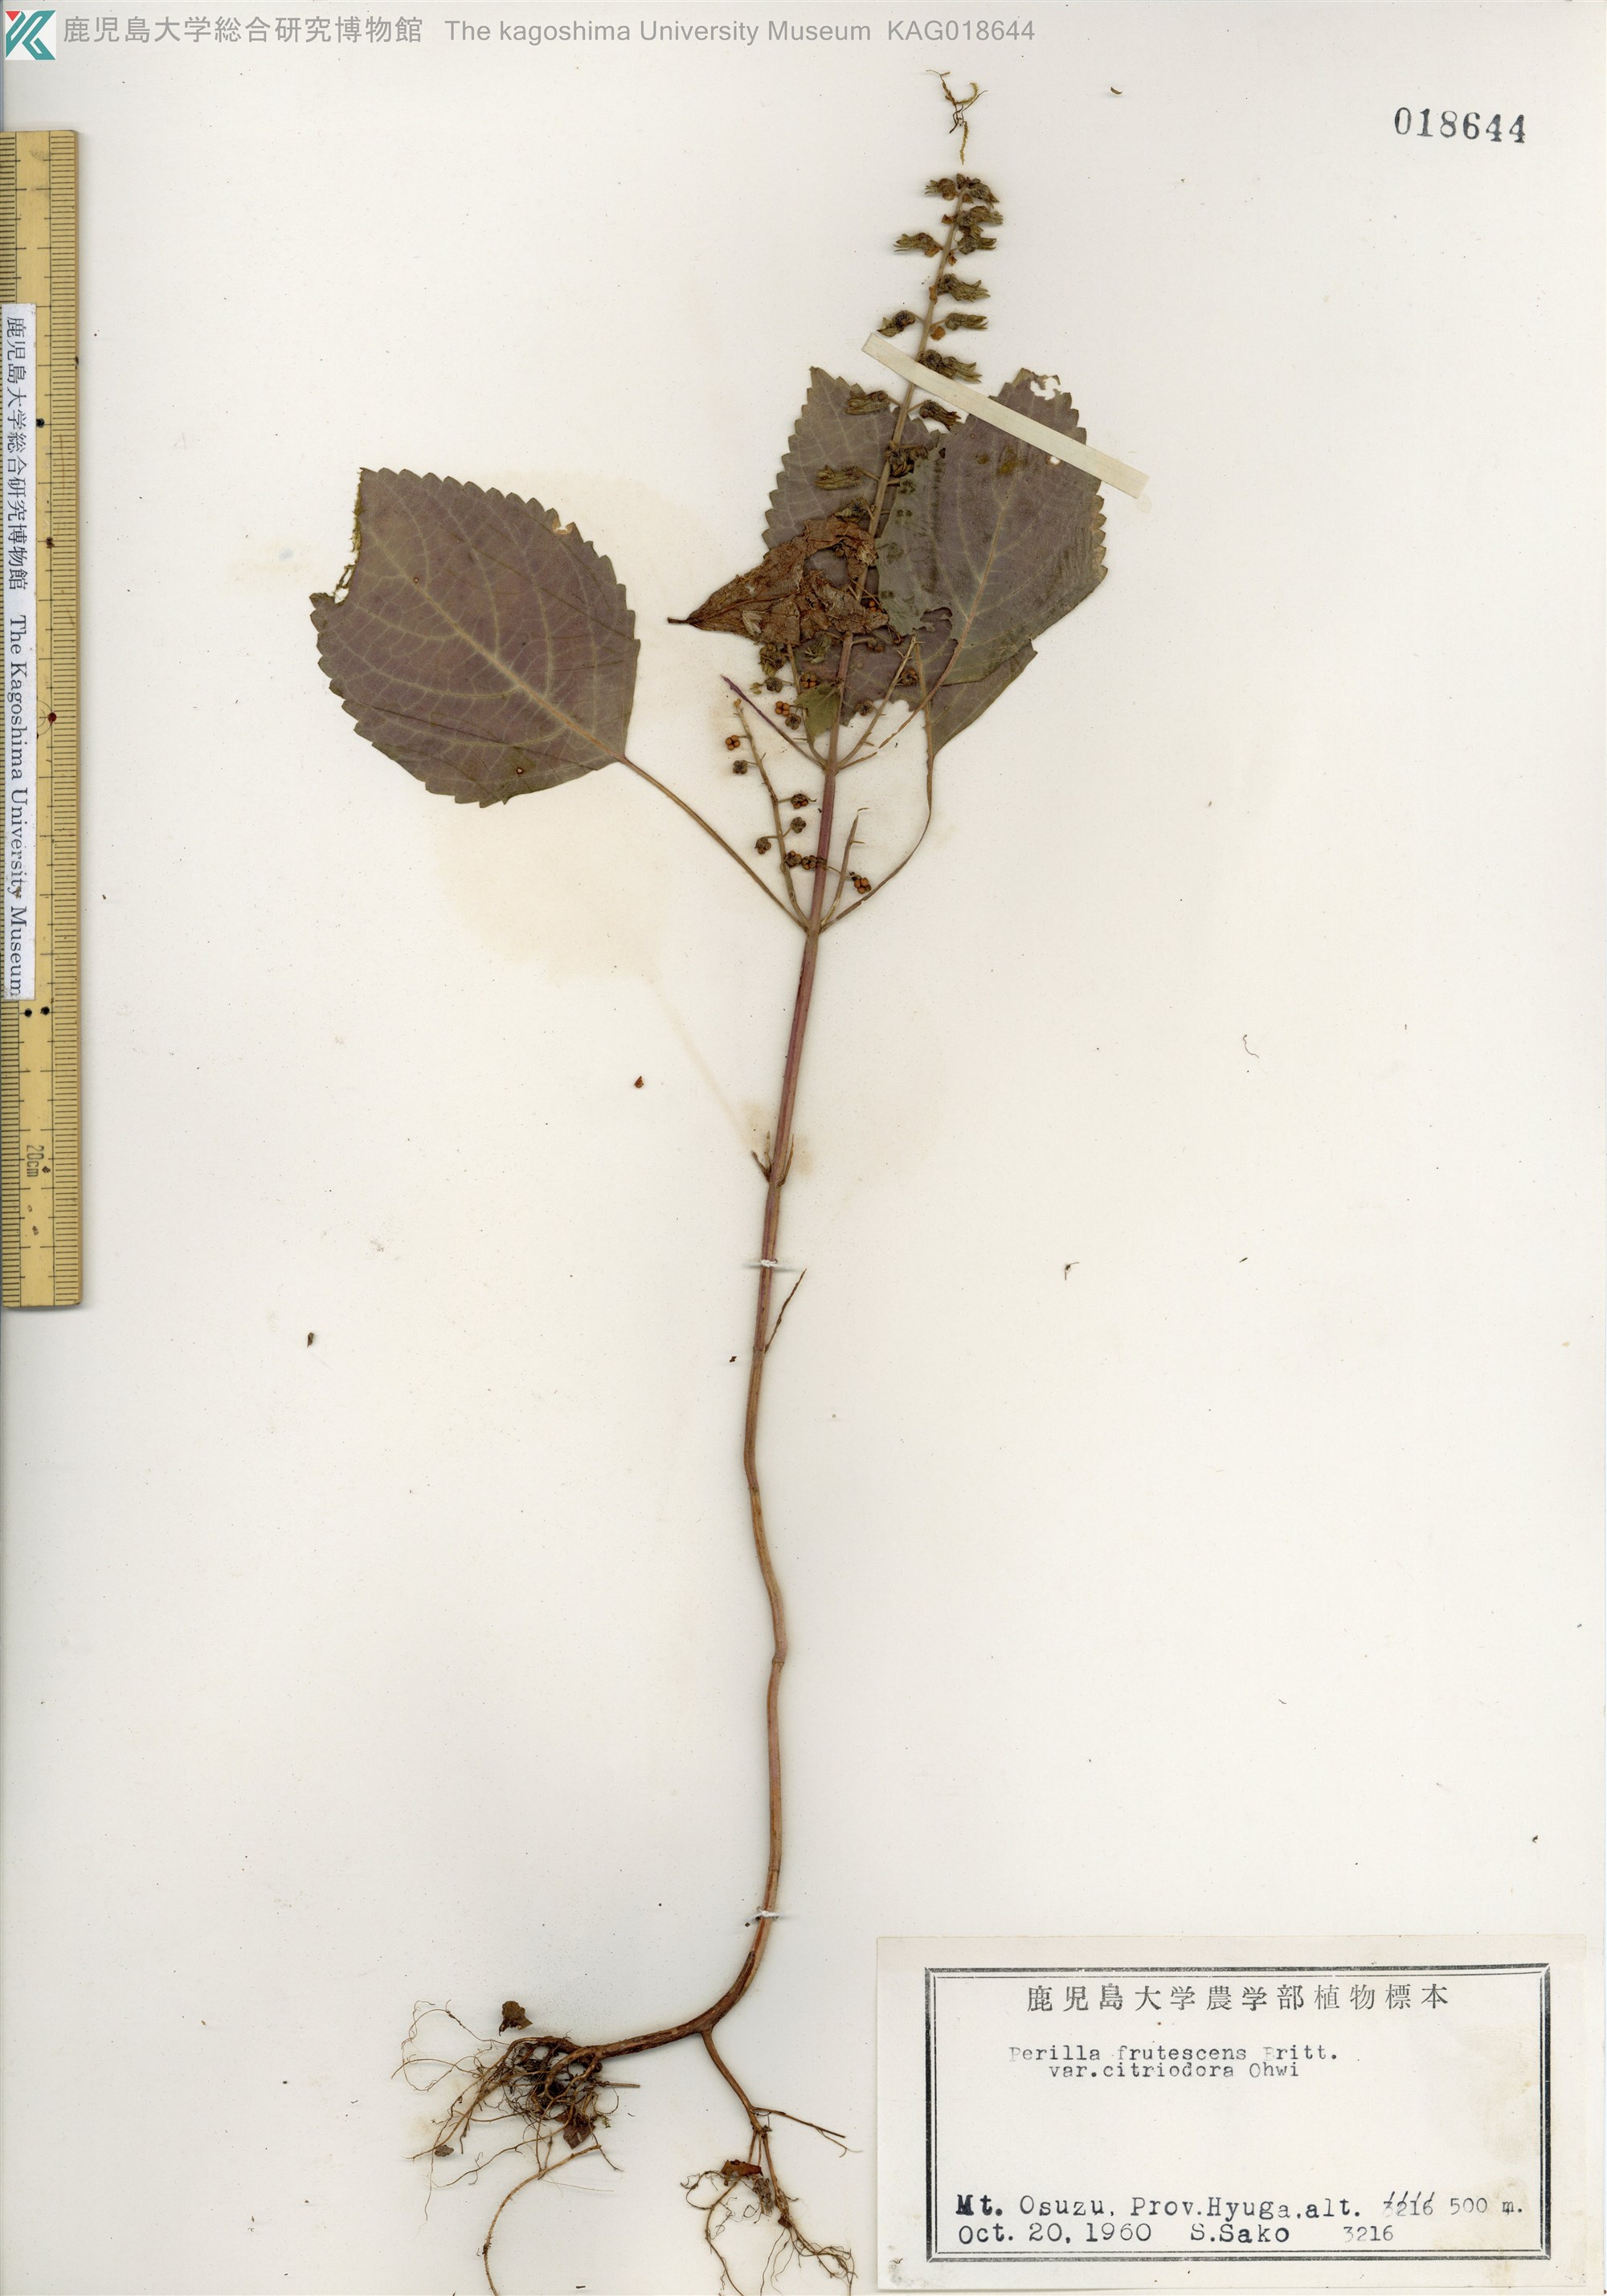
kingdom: Plantae
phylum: Tracheophyta
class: Magnoliopsida
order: Lamiales
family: Lamiaceae
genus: Perilla
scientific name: Perilla frutescens
